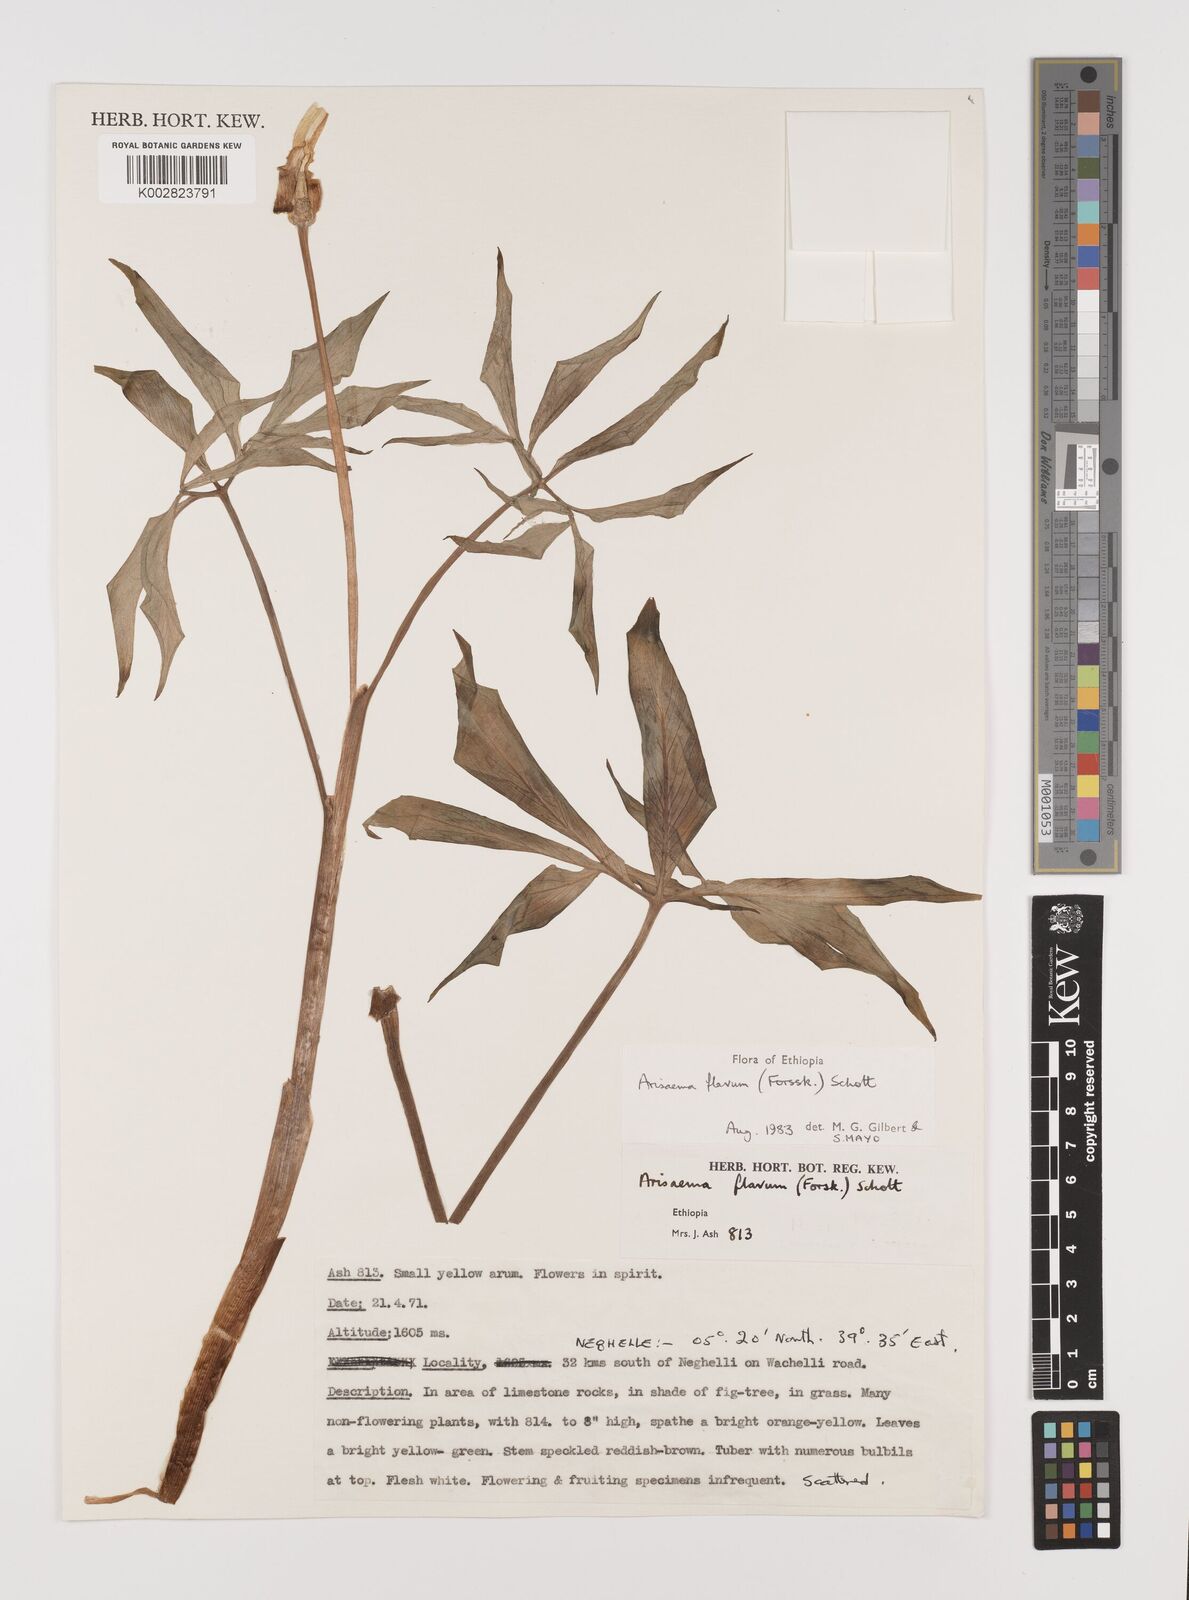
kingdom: Plantae
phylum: Tracheophyta
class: Liliopsida
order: Alismatales
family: Araceae
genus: Arisaema
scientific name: Arisaema flavum
